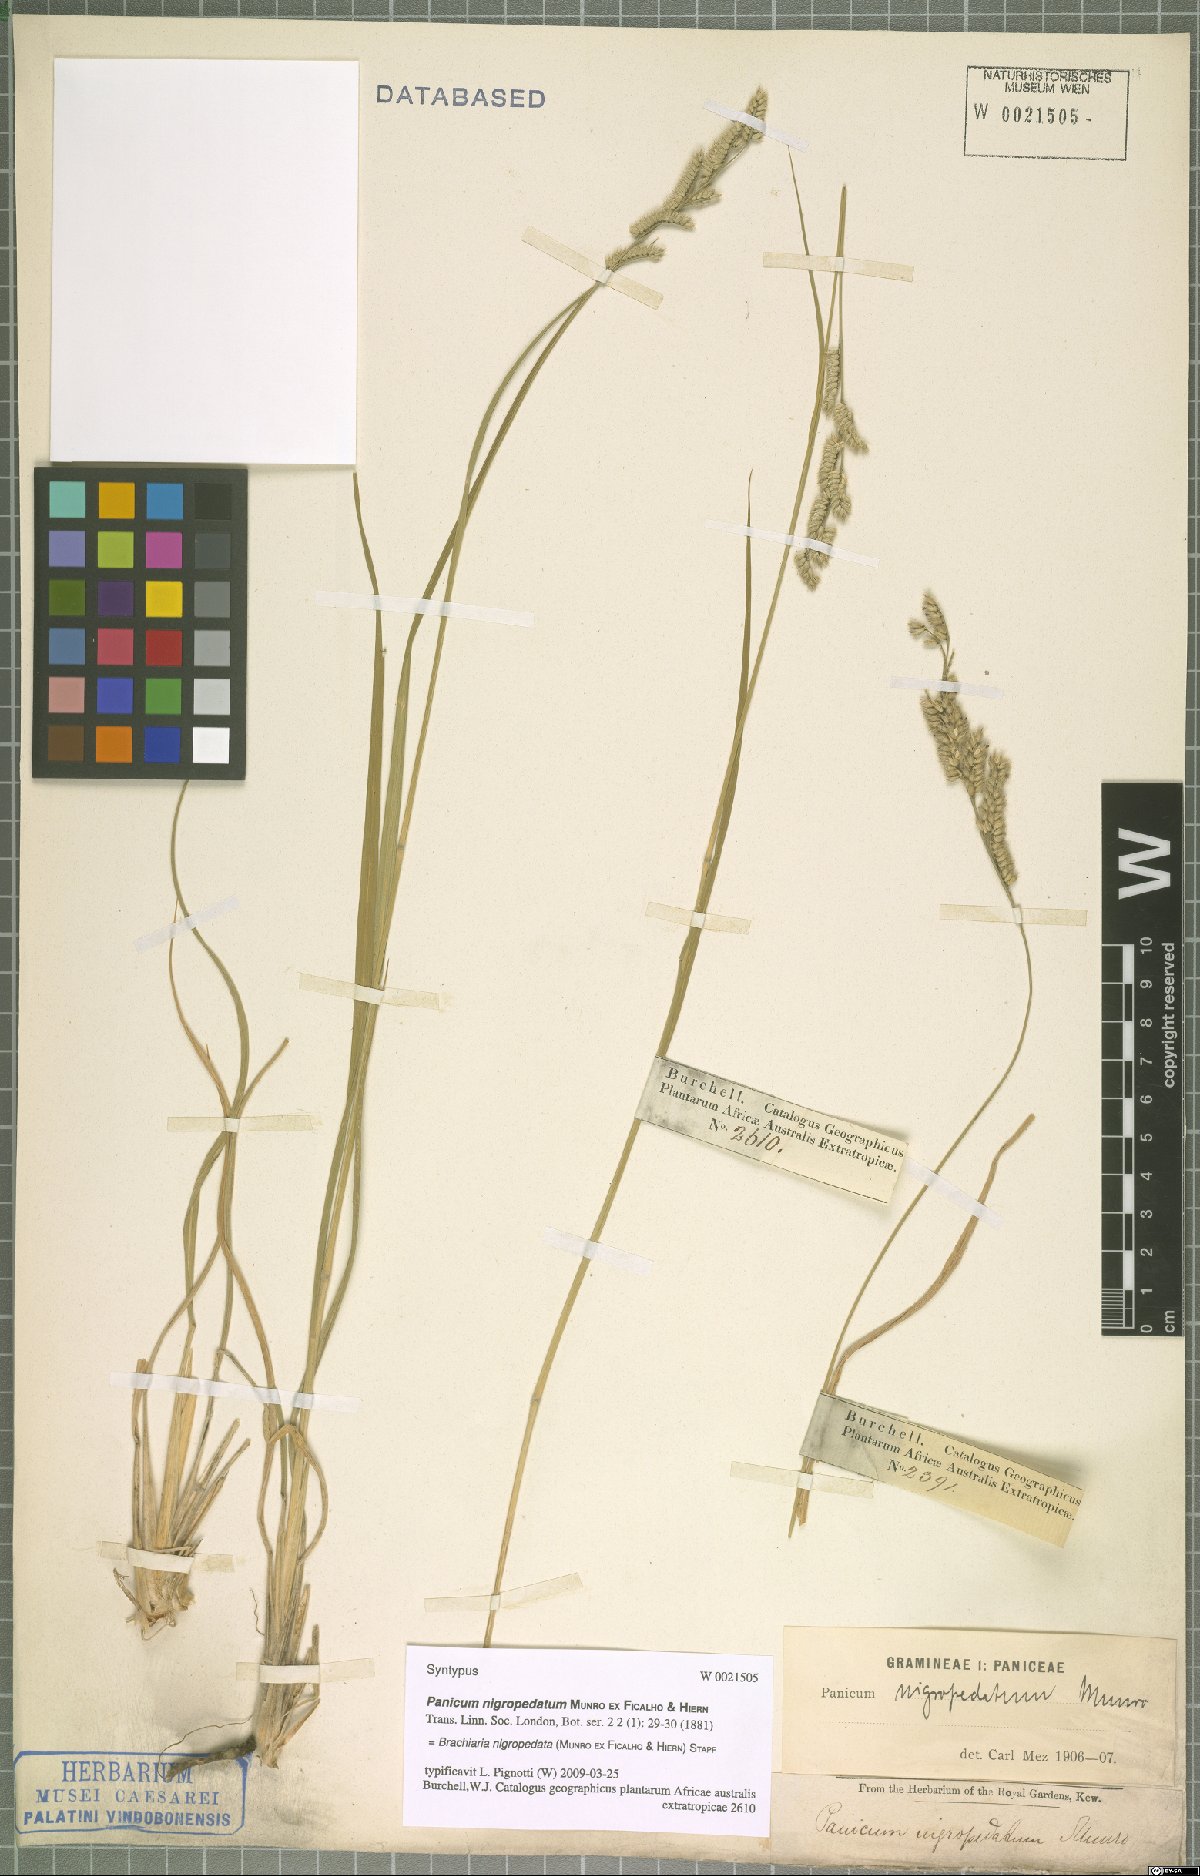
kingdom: Plantae
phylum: Tracheophyta
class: Liliopsida
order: Poales
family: Poaceae
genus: Urochloa
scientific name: Urochloa nigropedata
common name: Spotted signal grass
